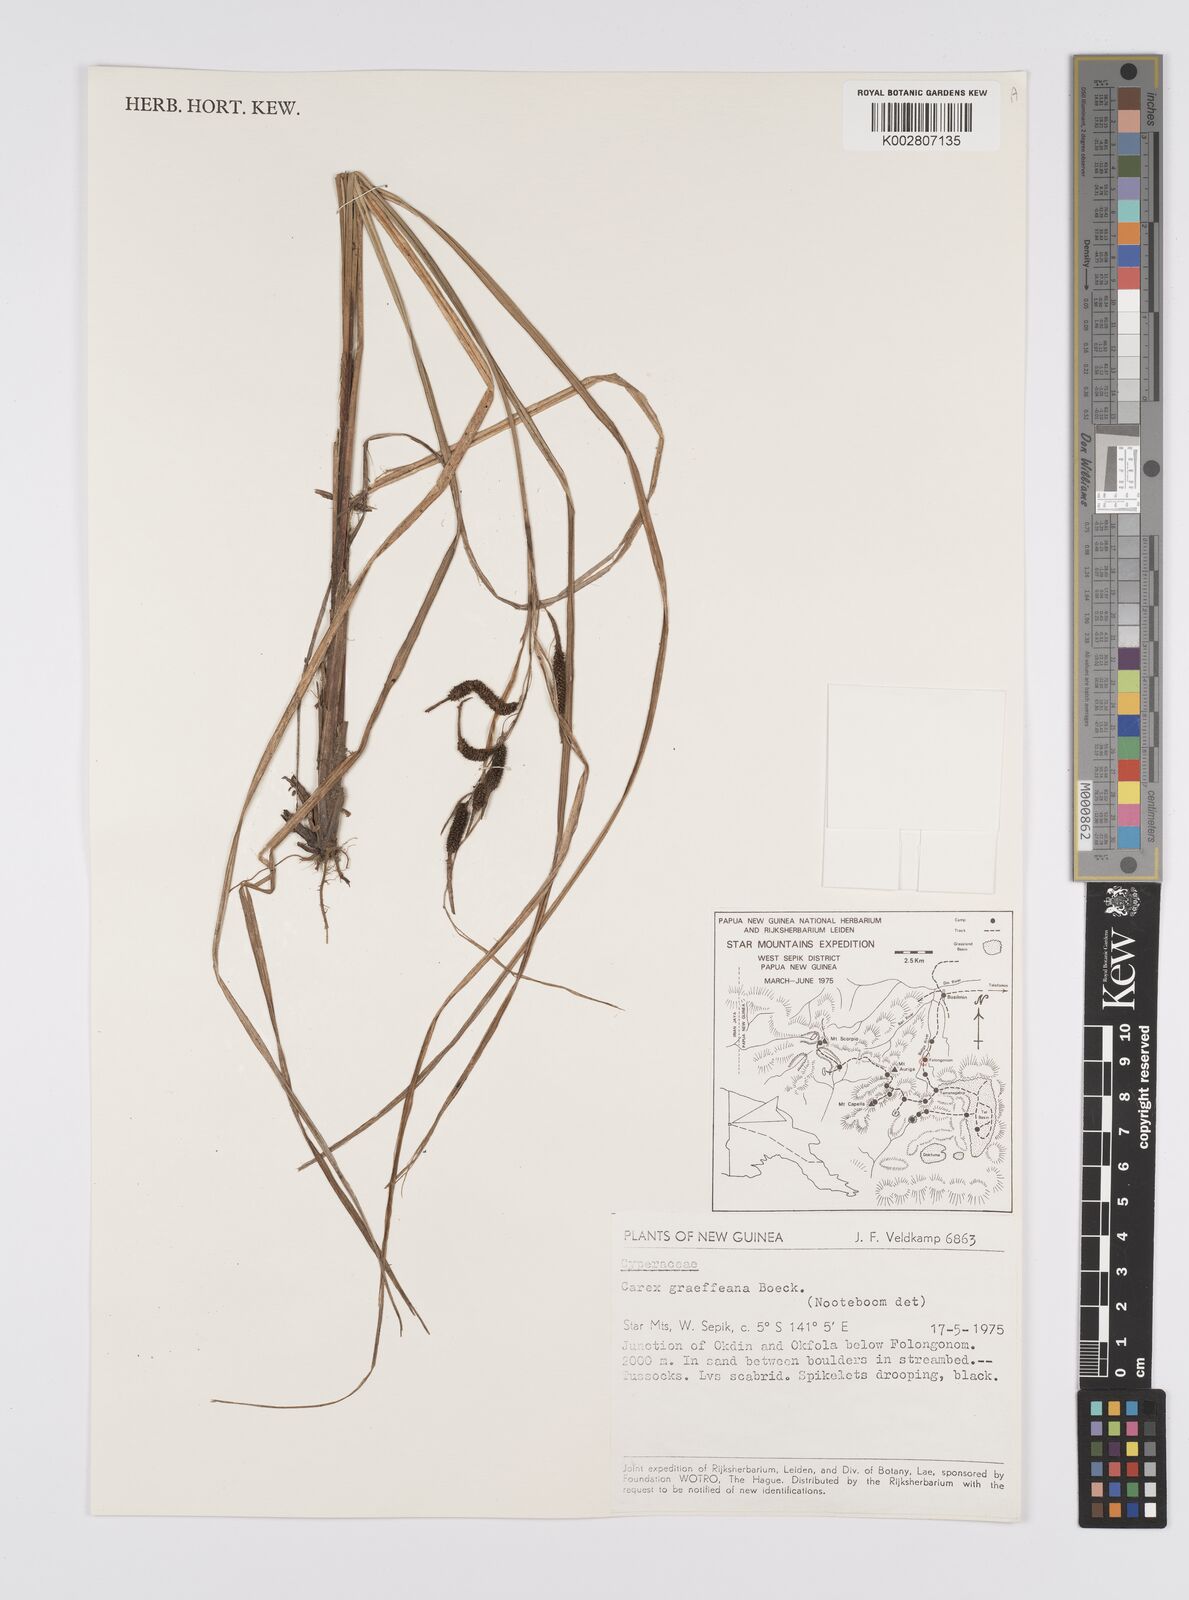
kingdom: Plantae
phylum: Tracheophyta
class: Liliopsida
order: Poales
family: Cyperaceae
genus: Carex
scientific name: Carex graeffeana
